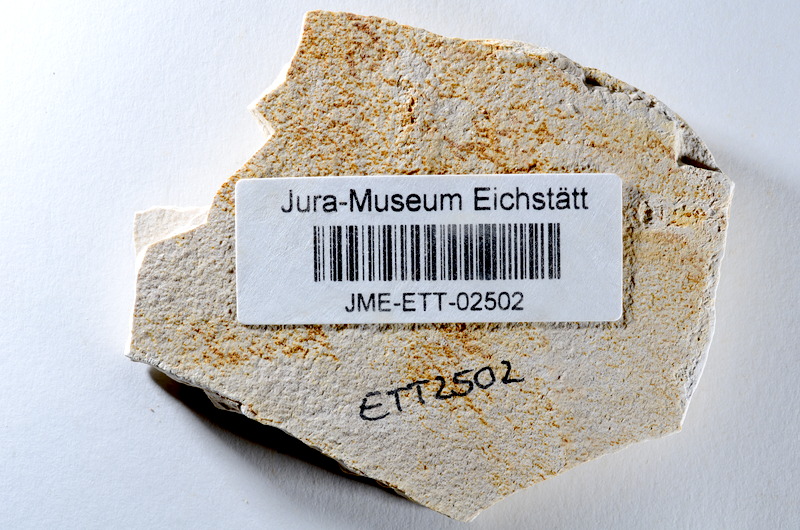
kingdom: Animalia
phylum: Chordata
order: Salmoniformes
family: Orthogonikleithridae
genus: Orthogonikleithrus
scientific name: Orthogonikleithrus hoelli
